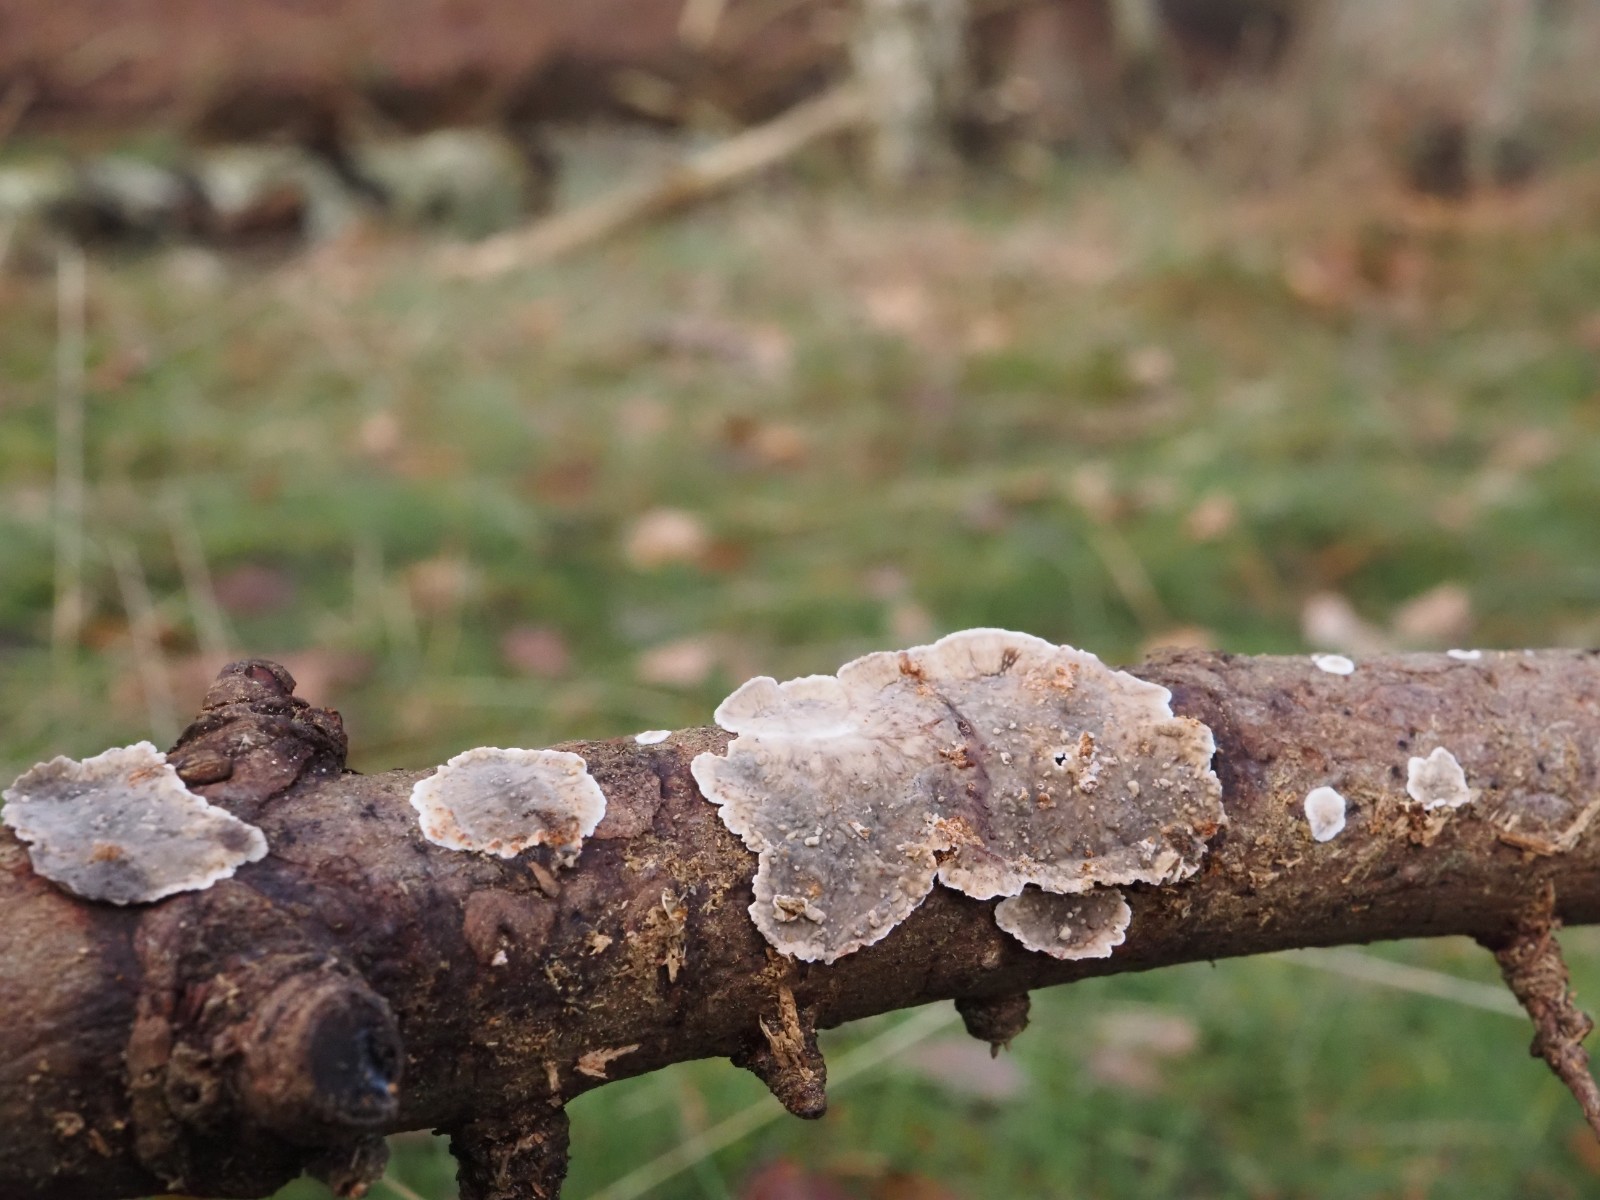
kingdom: Fungi
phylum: Basidiomycota
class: Agaricomycetes
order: Russulales
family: Stereaceae
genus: Stereum
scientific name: Stereum sanguinolentum
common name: blødende lædersvamp
